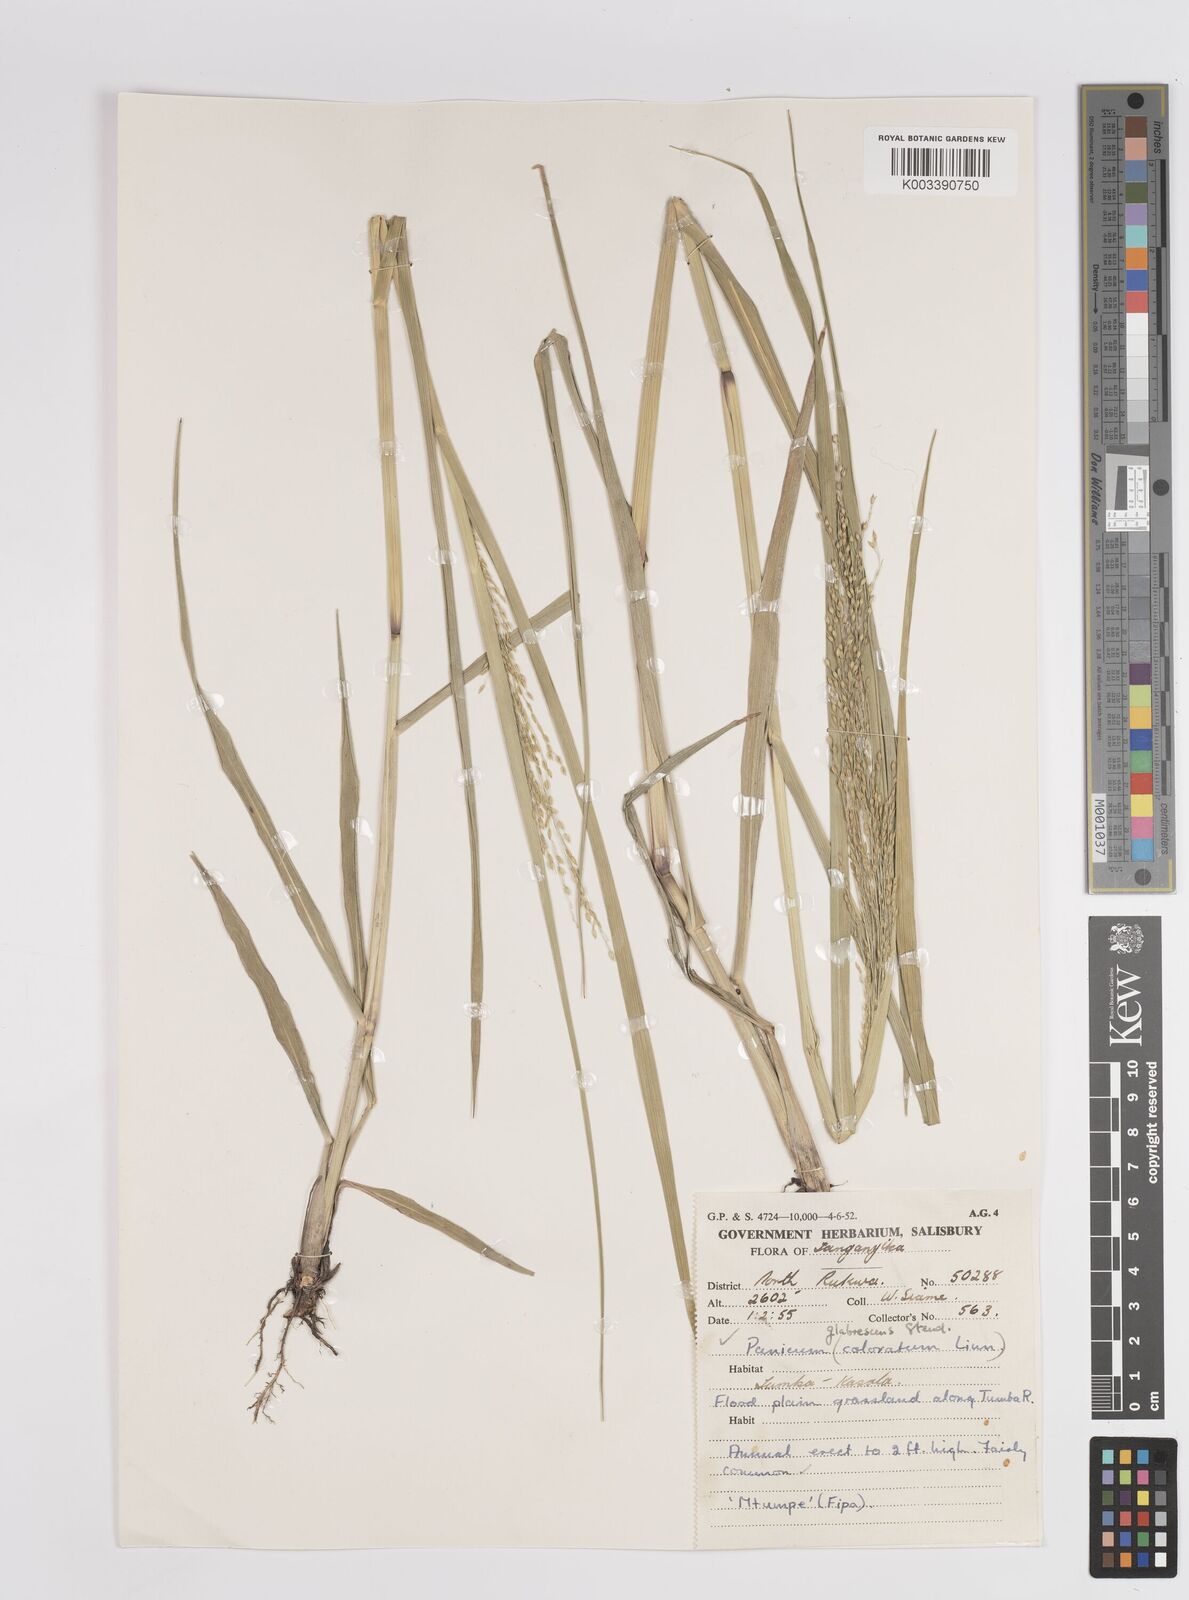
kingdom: Plantae
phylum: Tracheophyta
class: Liliopsida
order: Poales
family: Poaceae
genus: Panicum
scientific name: Panicum porphyrrhizos
